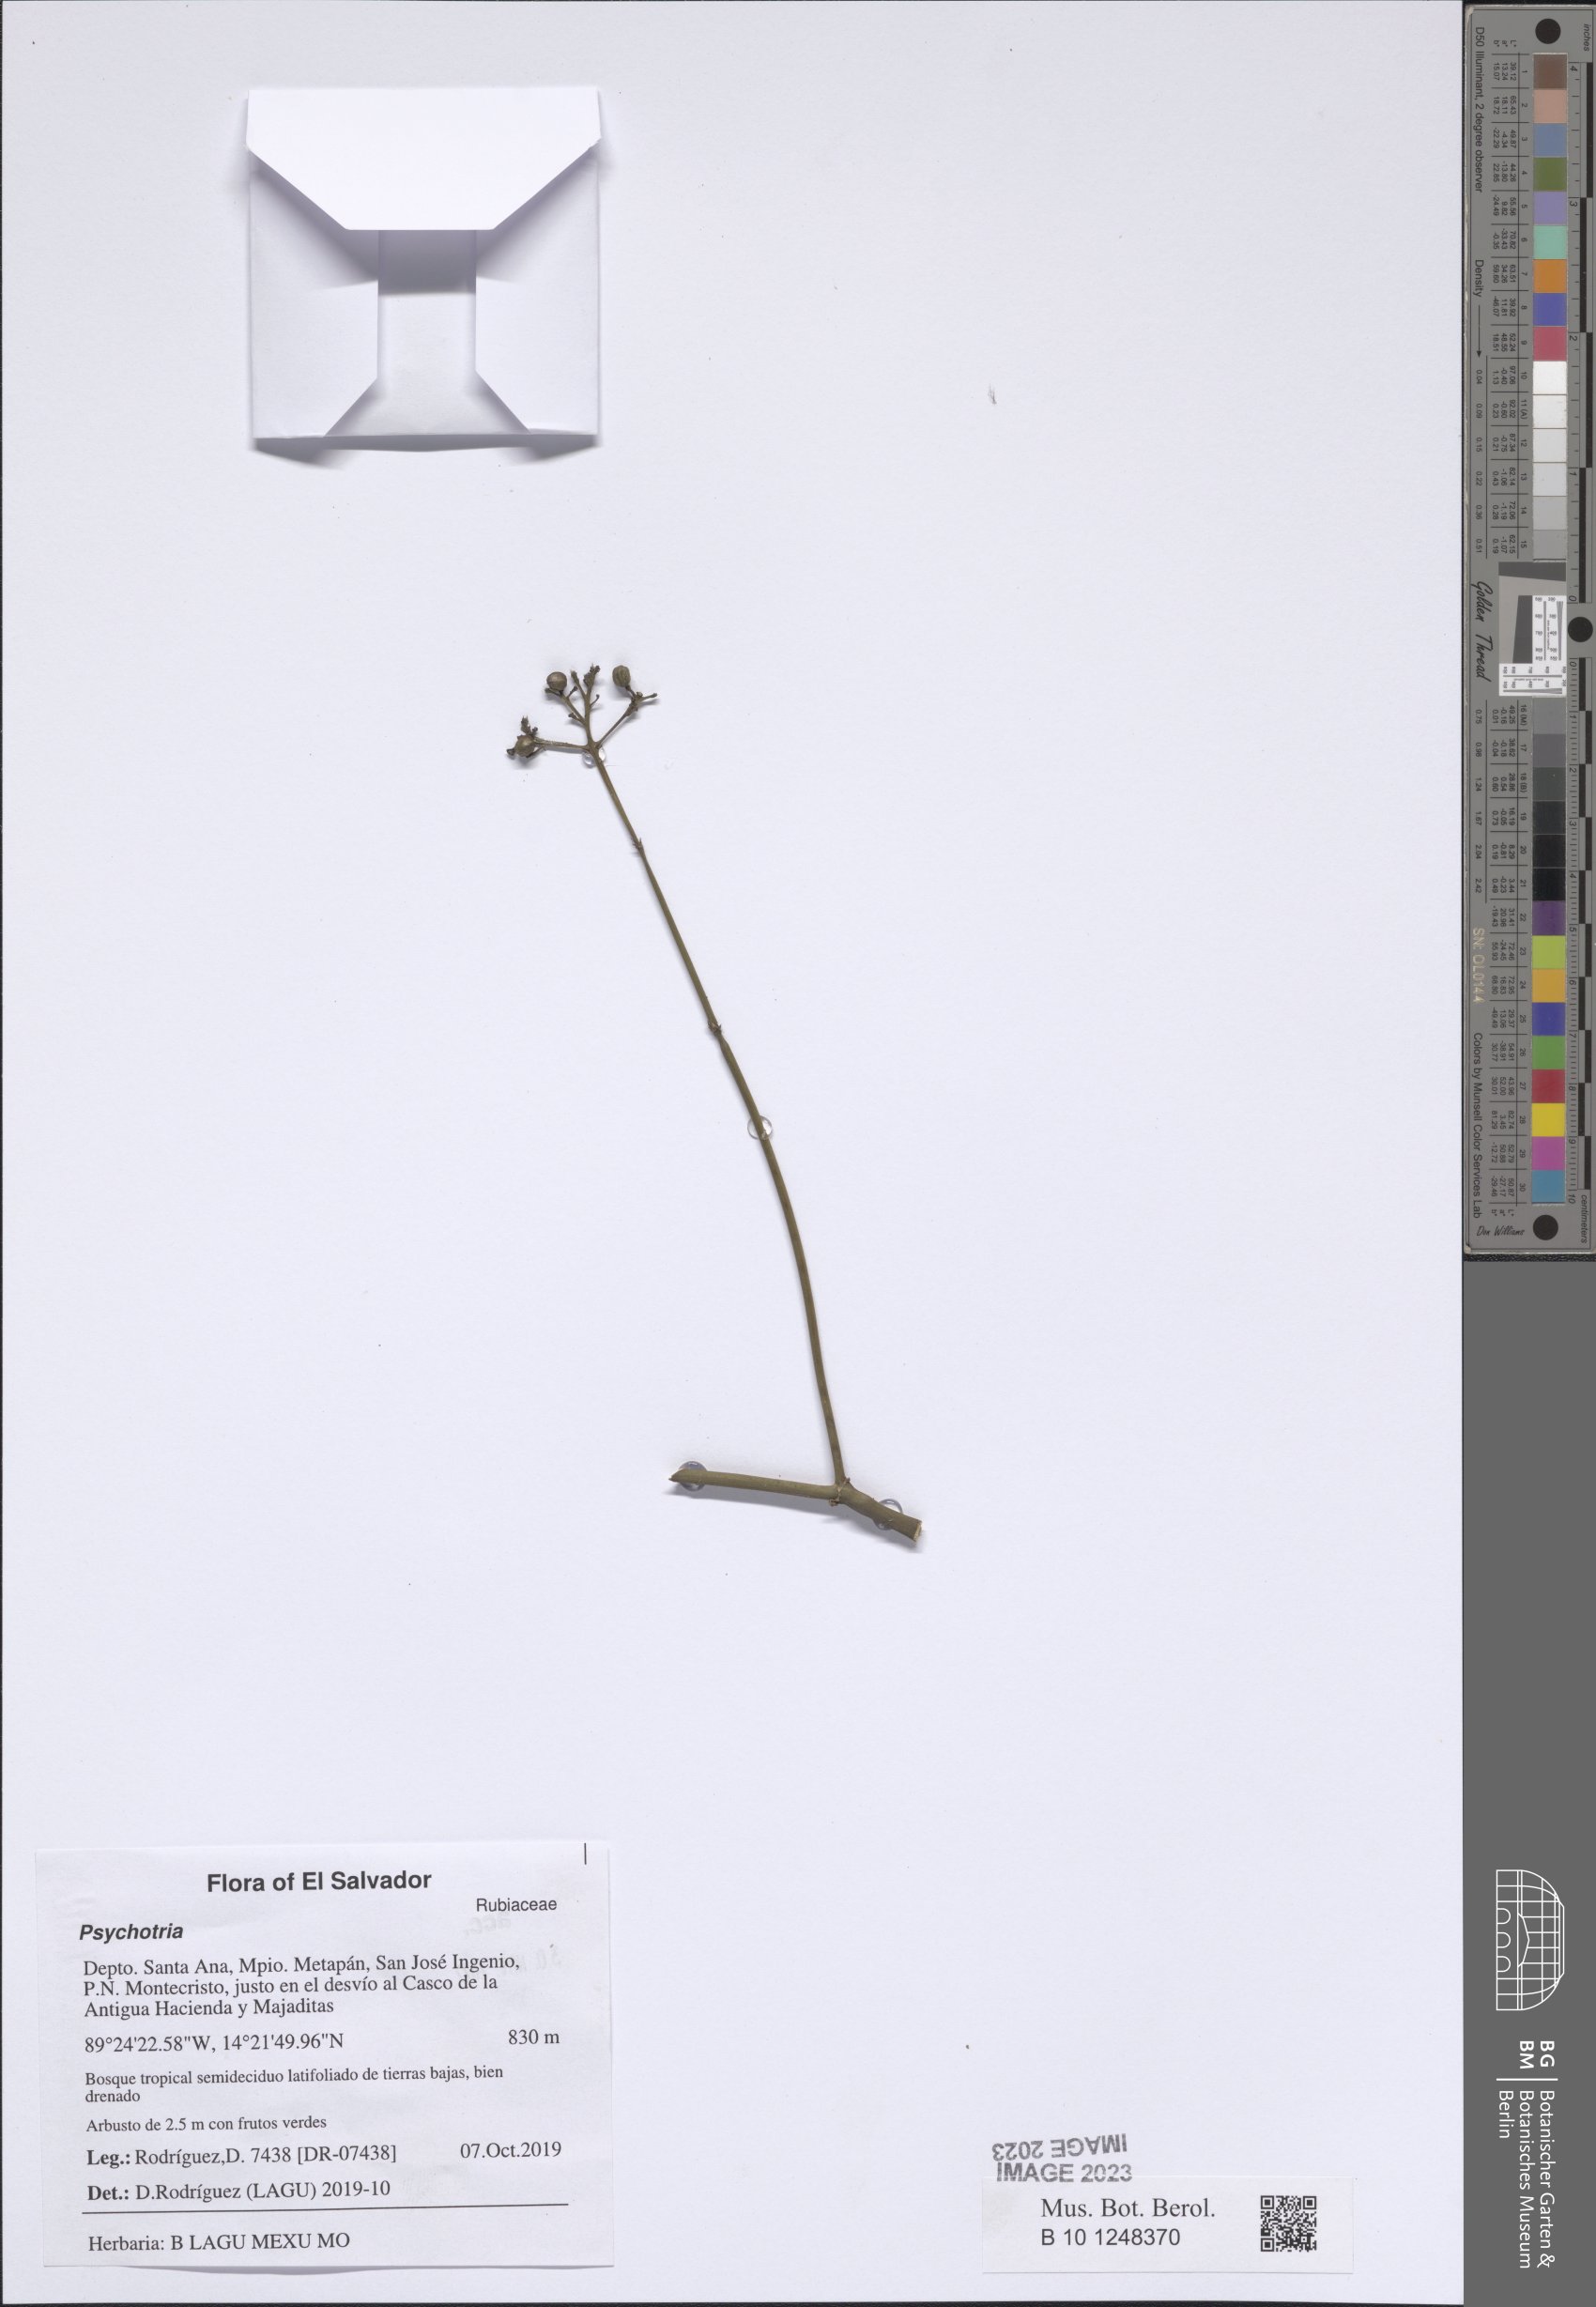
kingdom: Plantae
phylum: Tracheophyta
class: Magnoliopsida
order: Gentianales
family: Rubiaceae
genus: Psychotria
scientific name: Psychotria
